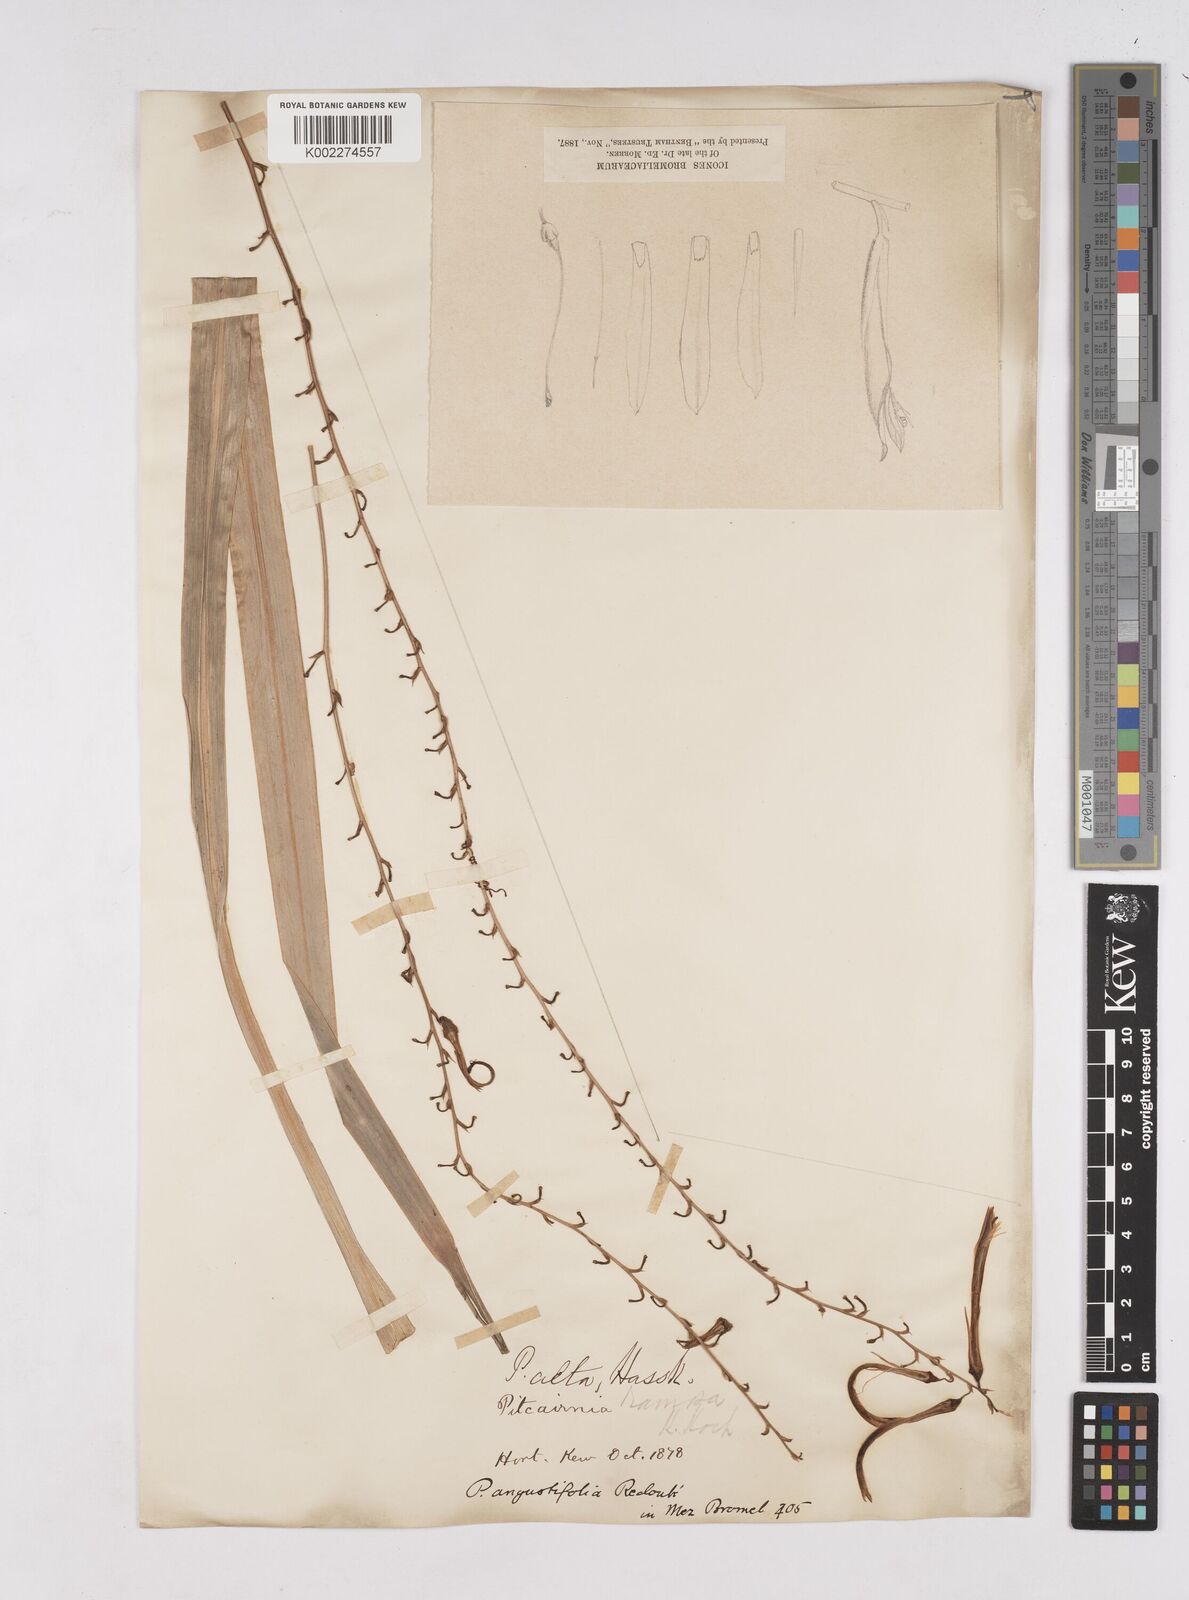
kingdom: Plantae
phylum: Tracheophyta
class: Liliopsida
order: Poales
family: Bromeliaceae
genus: Pitcairnia
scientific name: Pitcairnia angustifolia
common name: Clapper
